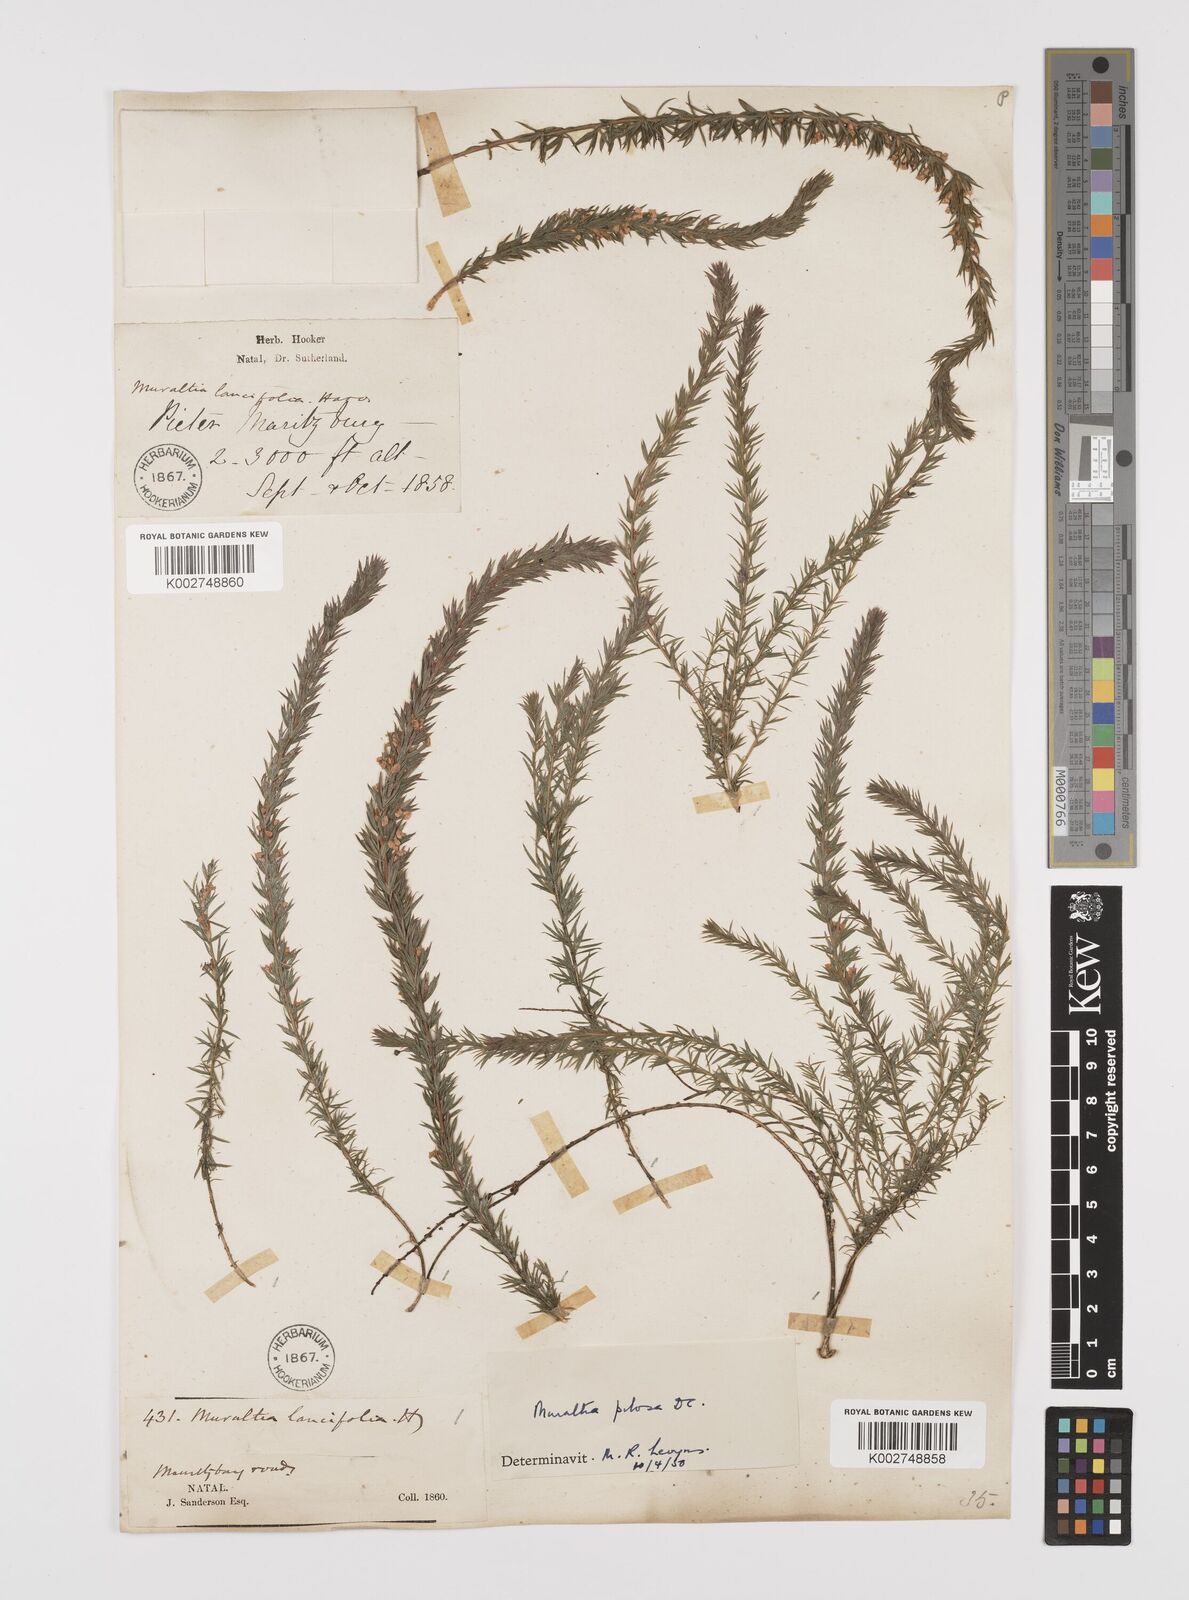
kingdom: Plantae
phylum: Tracheophyta
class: Magnoliopsida
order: Fabales
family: Polygalaceae
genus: Muraltia
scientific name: Muraltia lancifolia
